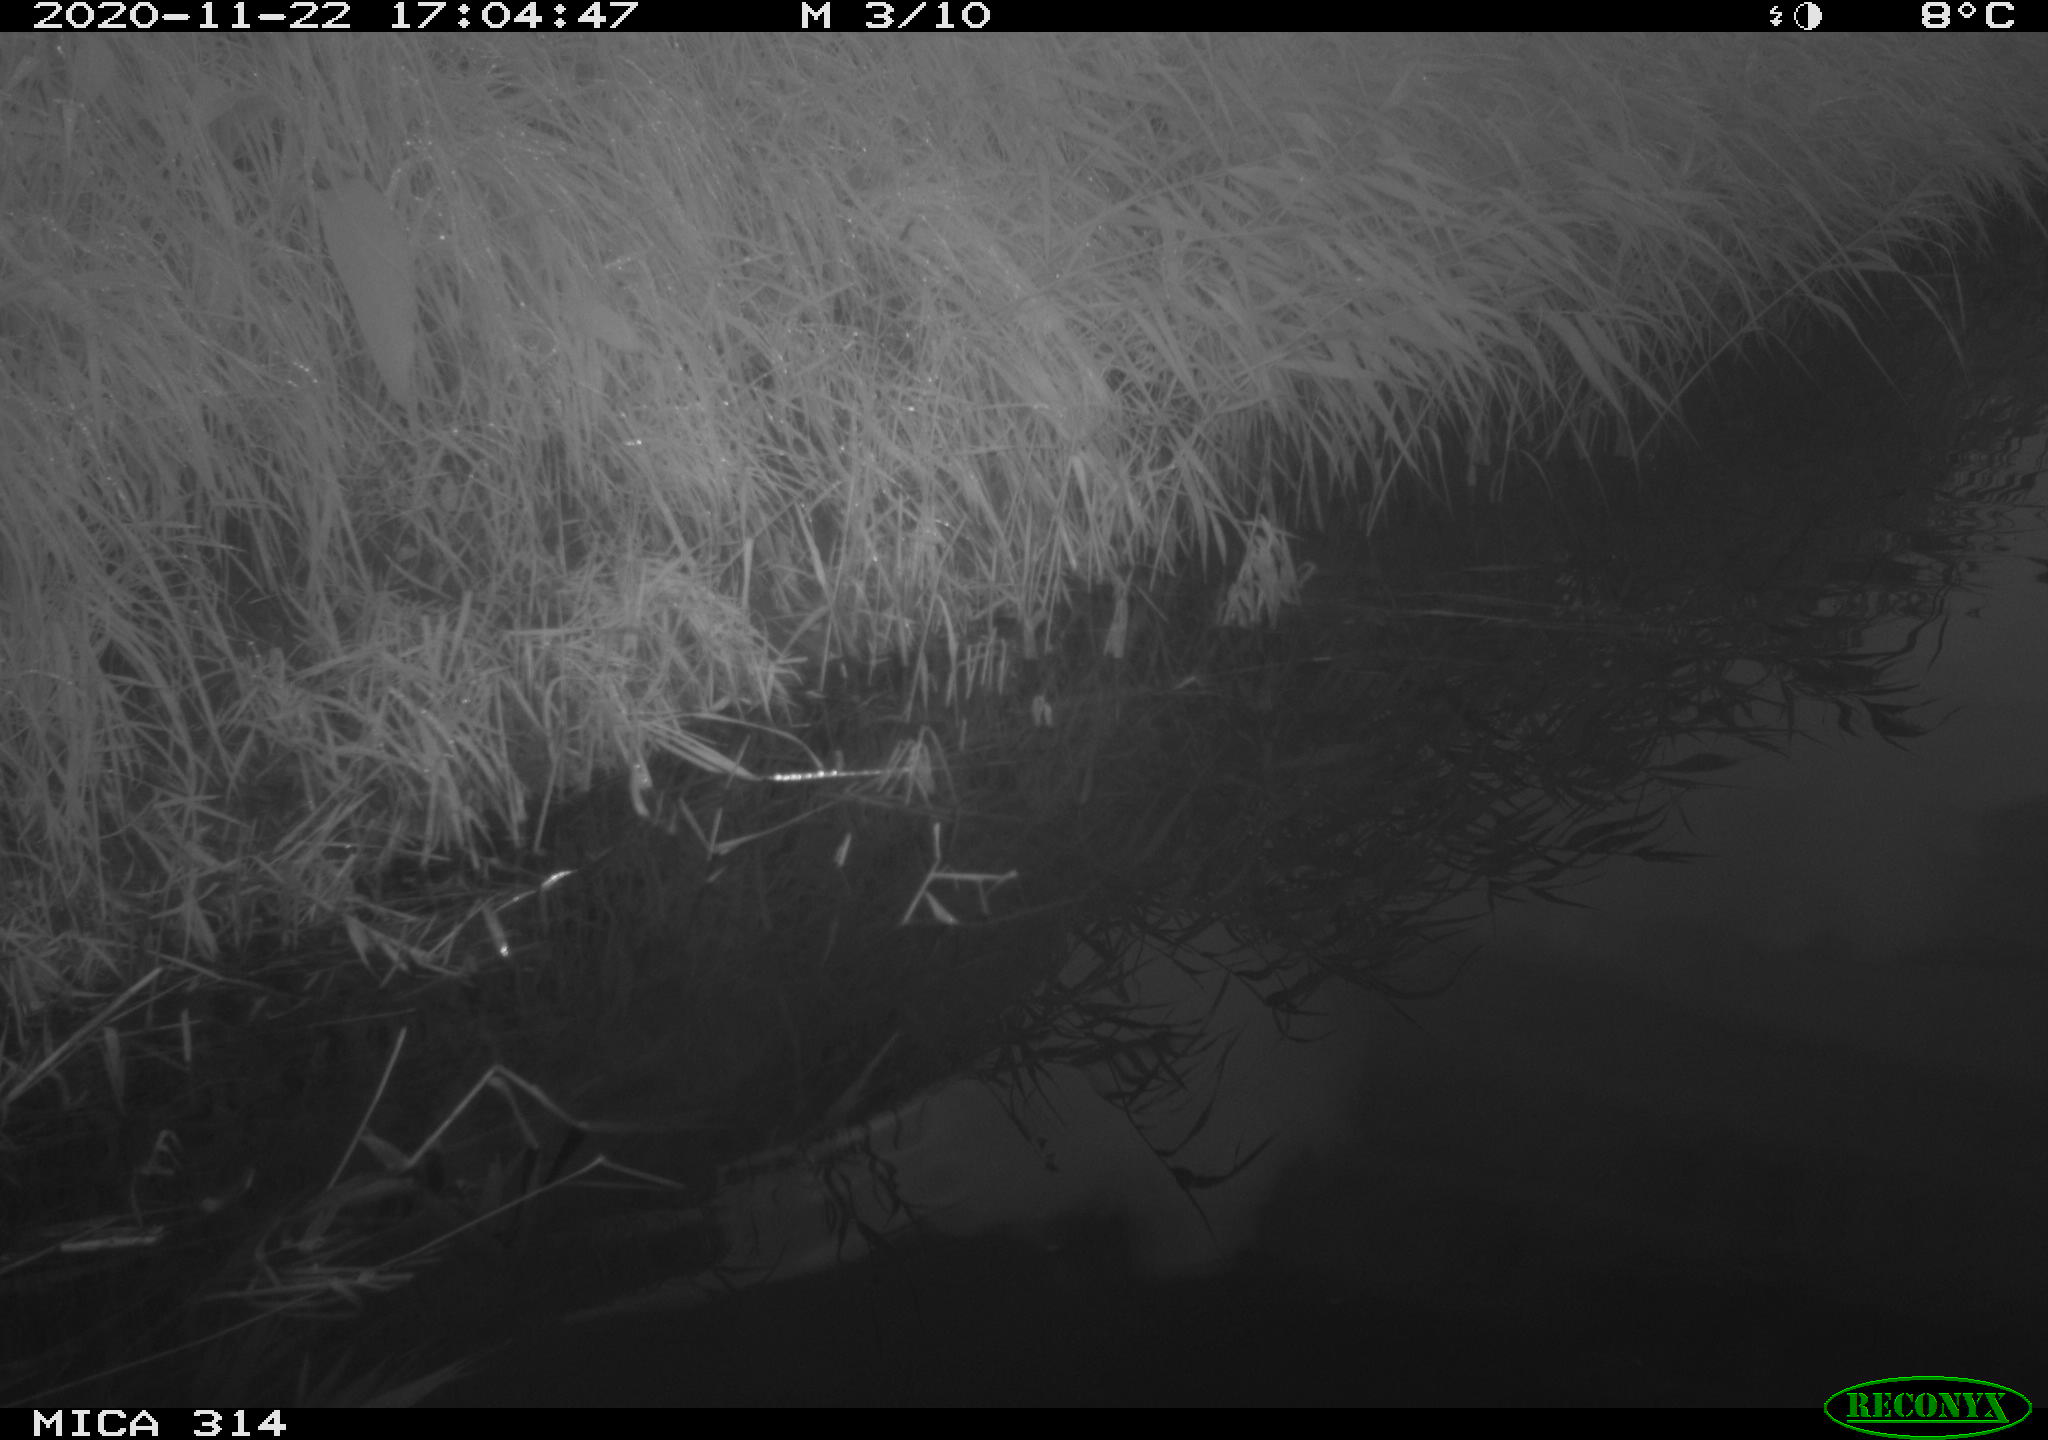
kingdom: Animalia
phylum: Chordata
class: Aves
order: Gruiformes
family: Rallidae
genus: Gallinula
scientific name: Gallinula chloropus
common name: Common moorhen
